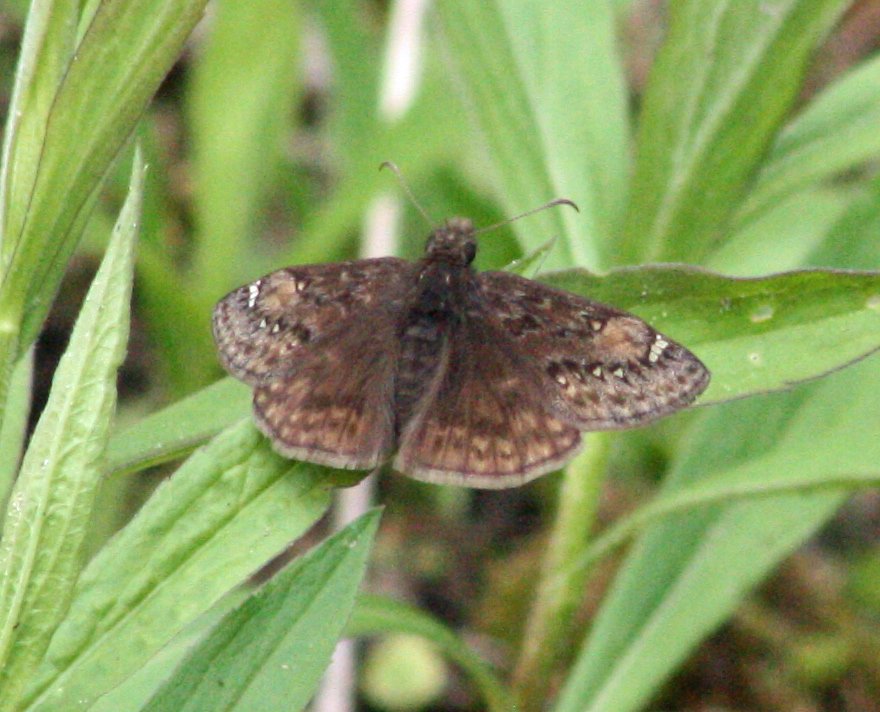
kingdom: Animalia
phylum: Arthropoda
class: Insecta
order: Lepidoptera
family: Hesperiidae
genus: Gesta
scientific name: Gesta
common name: Juvenal's Duskywing
